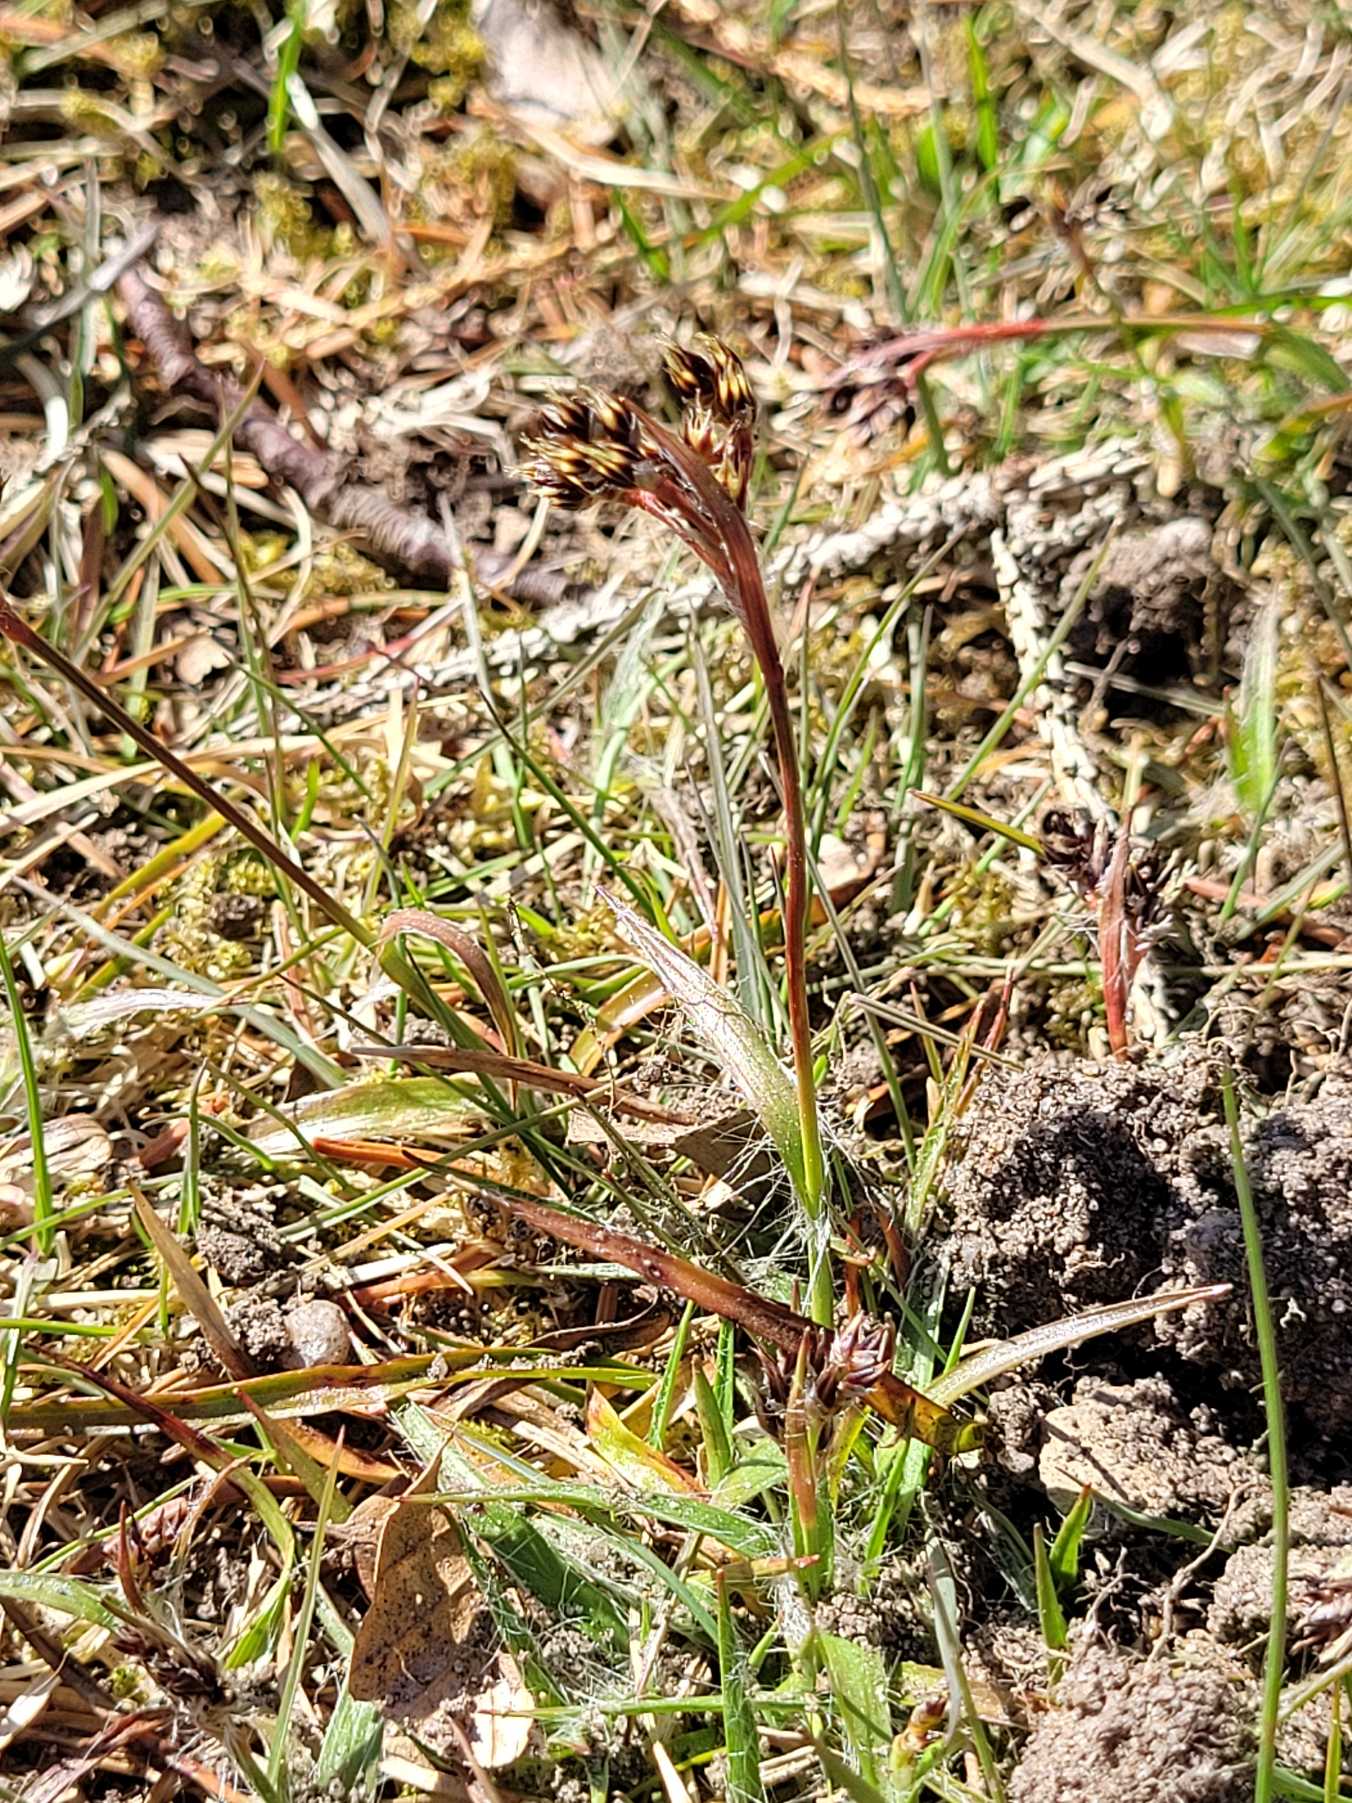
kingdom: Plantae
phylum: Tracheophyta
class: Liliopsida
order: Poales
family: Juncaceae
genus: Luzula
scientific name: Luzula campestris
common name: Mark-frytle
